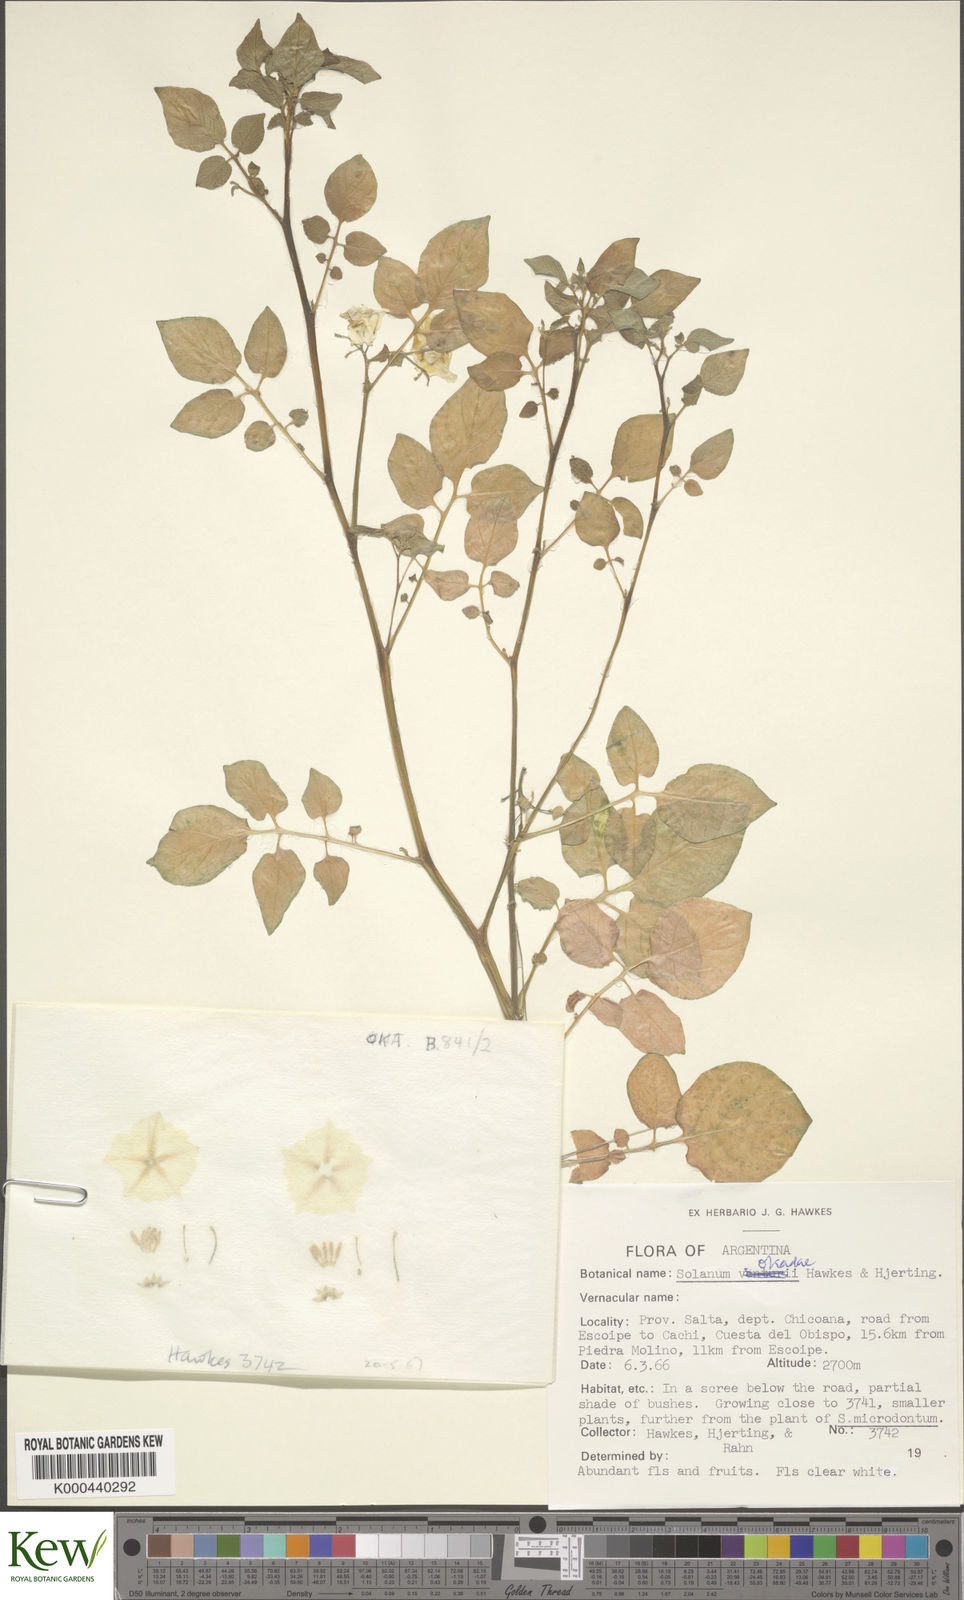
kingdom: Plantae
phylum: Tracheophyta
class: Magnoliopsida
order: Solanales
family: Solanaceae
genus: Solanum
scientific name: Solanum okadae
